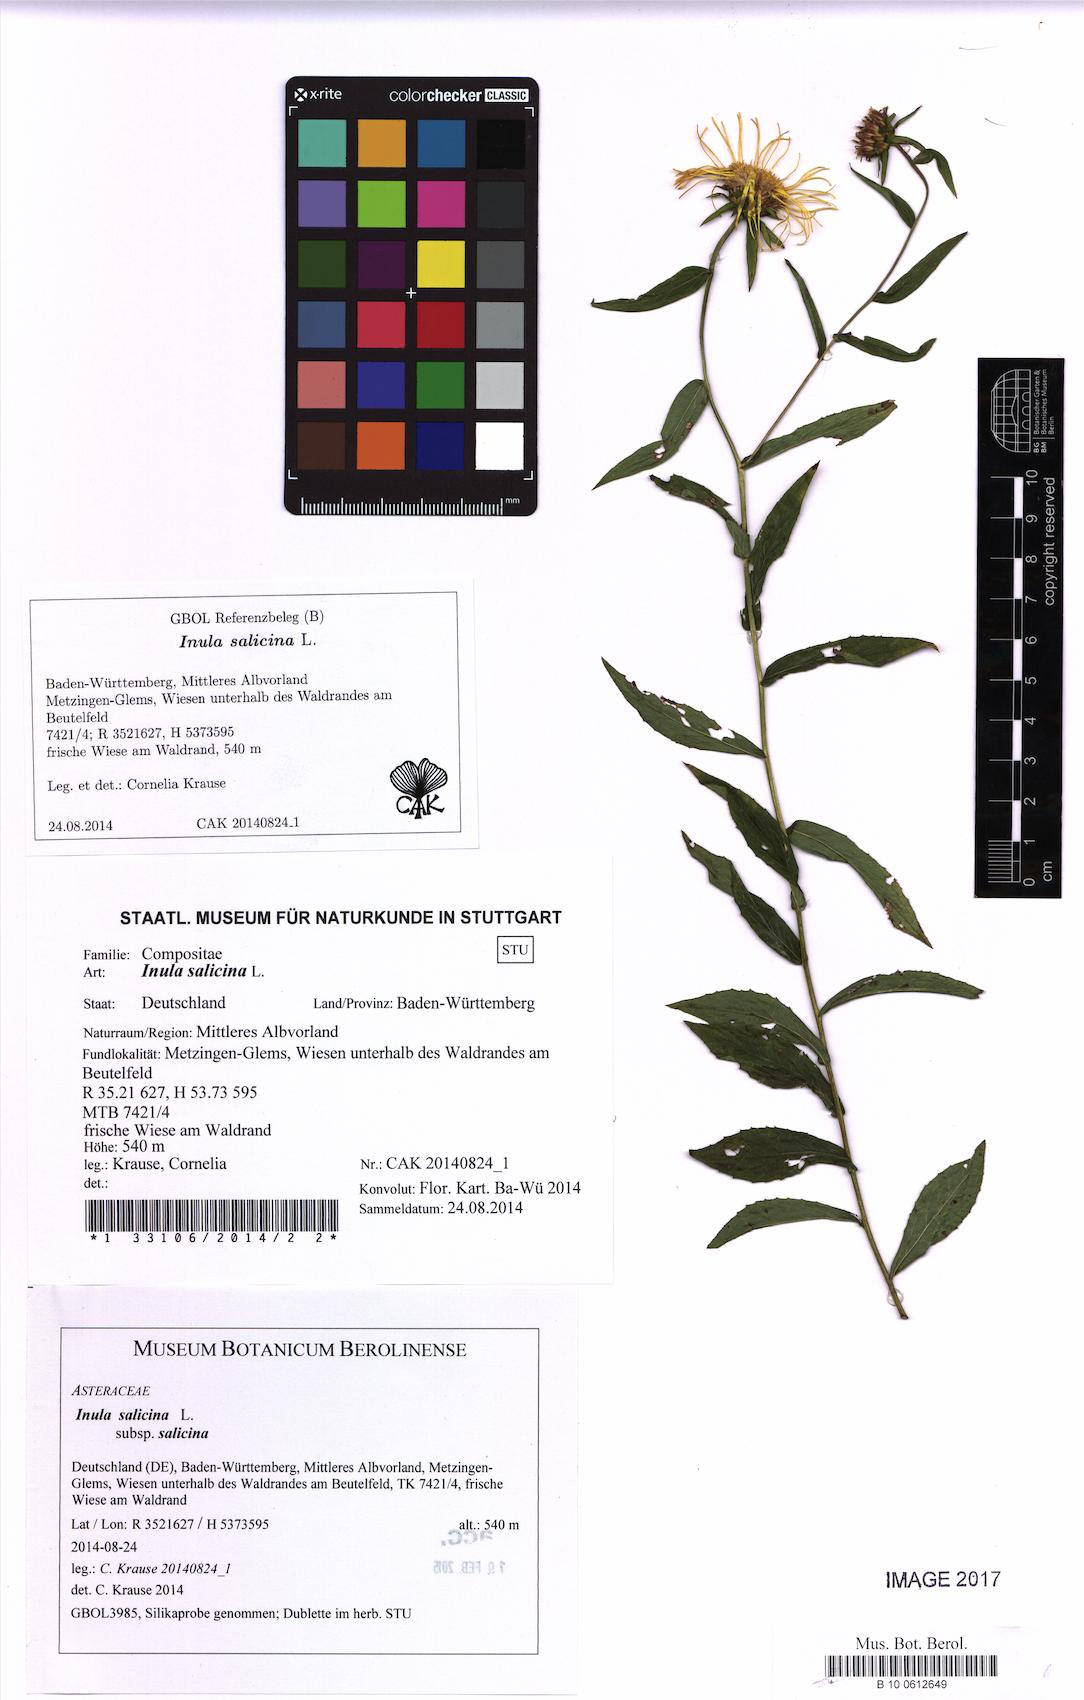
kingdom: Plantae
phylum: Tracheophyta
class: Magnoliopsida
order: Asterales
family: Asteraceae
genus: Pentanema
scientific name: Pentanema salicinum
